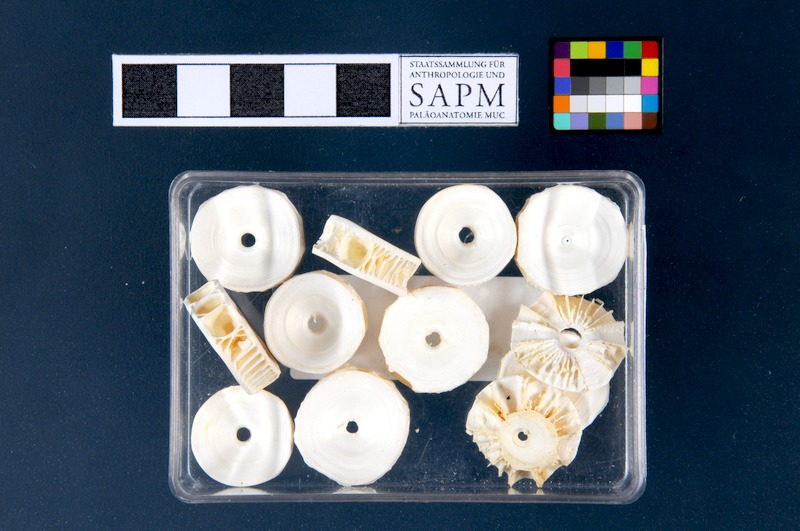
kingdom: Animalia
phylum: Chordata
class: Elasmobranchii
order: Lamniformes
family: Lamnidae
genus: Lamna
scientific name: Lamna nasus
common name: Porbeagle
